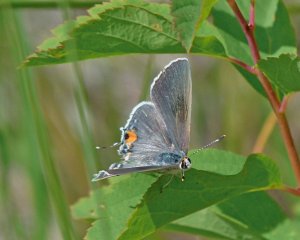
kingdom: Animalia
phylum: Arthropoda
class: Insecta
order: Lepidoptera
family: Lycaenidae
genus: Strymon
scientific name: Strymon melinus
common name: Gray Hairstreak
